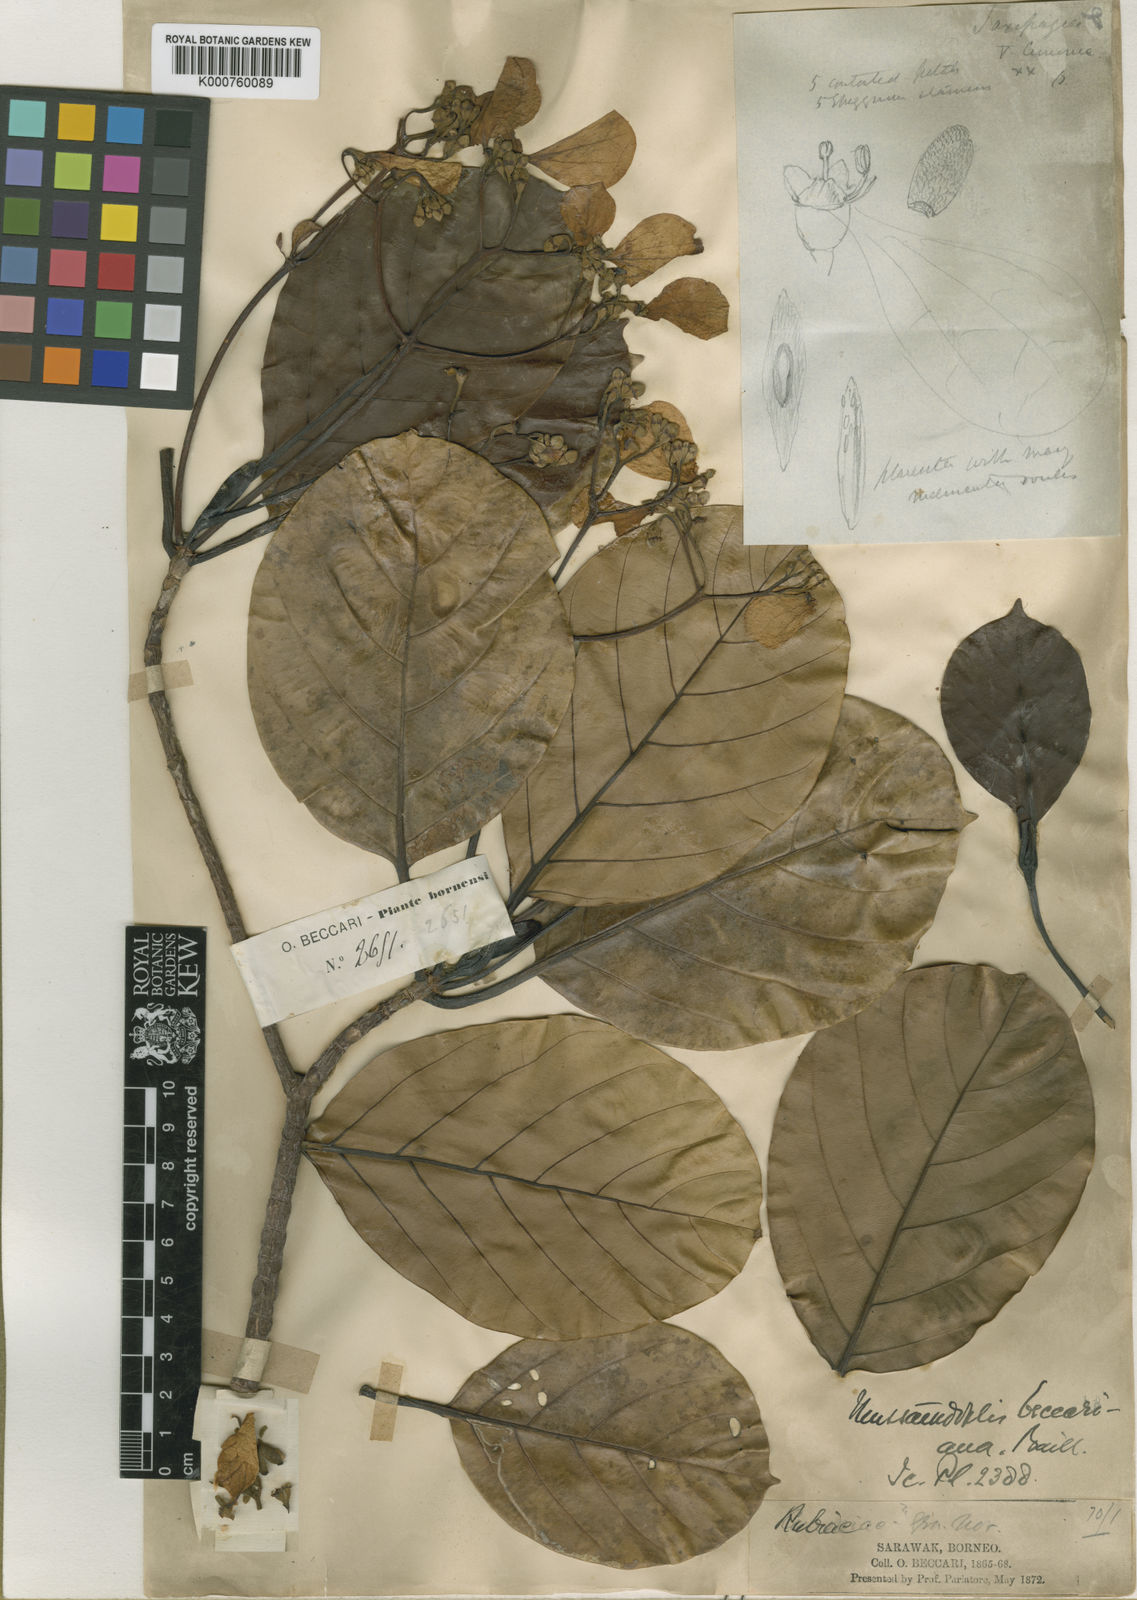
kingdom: Plantae
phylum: Tracheophyta
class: Magnoliopsida
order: Gentianales
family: Rubiaceae
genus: Mussaendopsis
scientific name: Mussaendopsis beccariana
